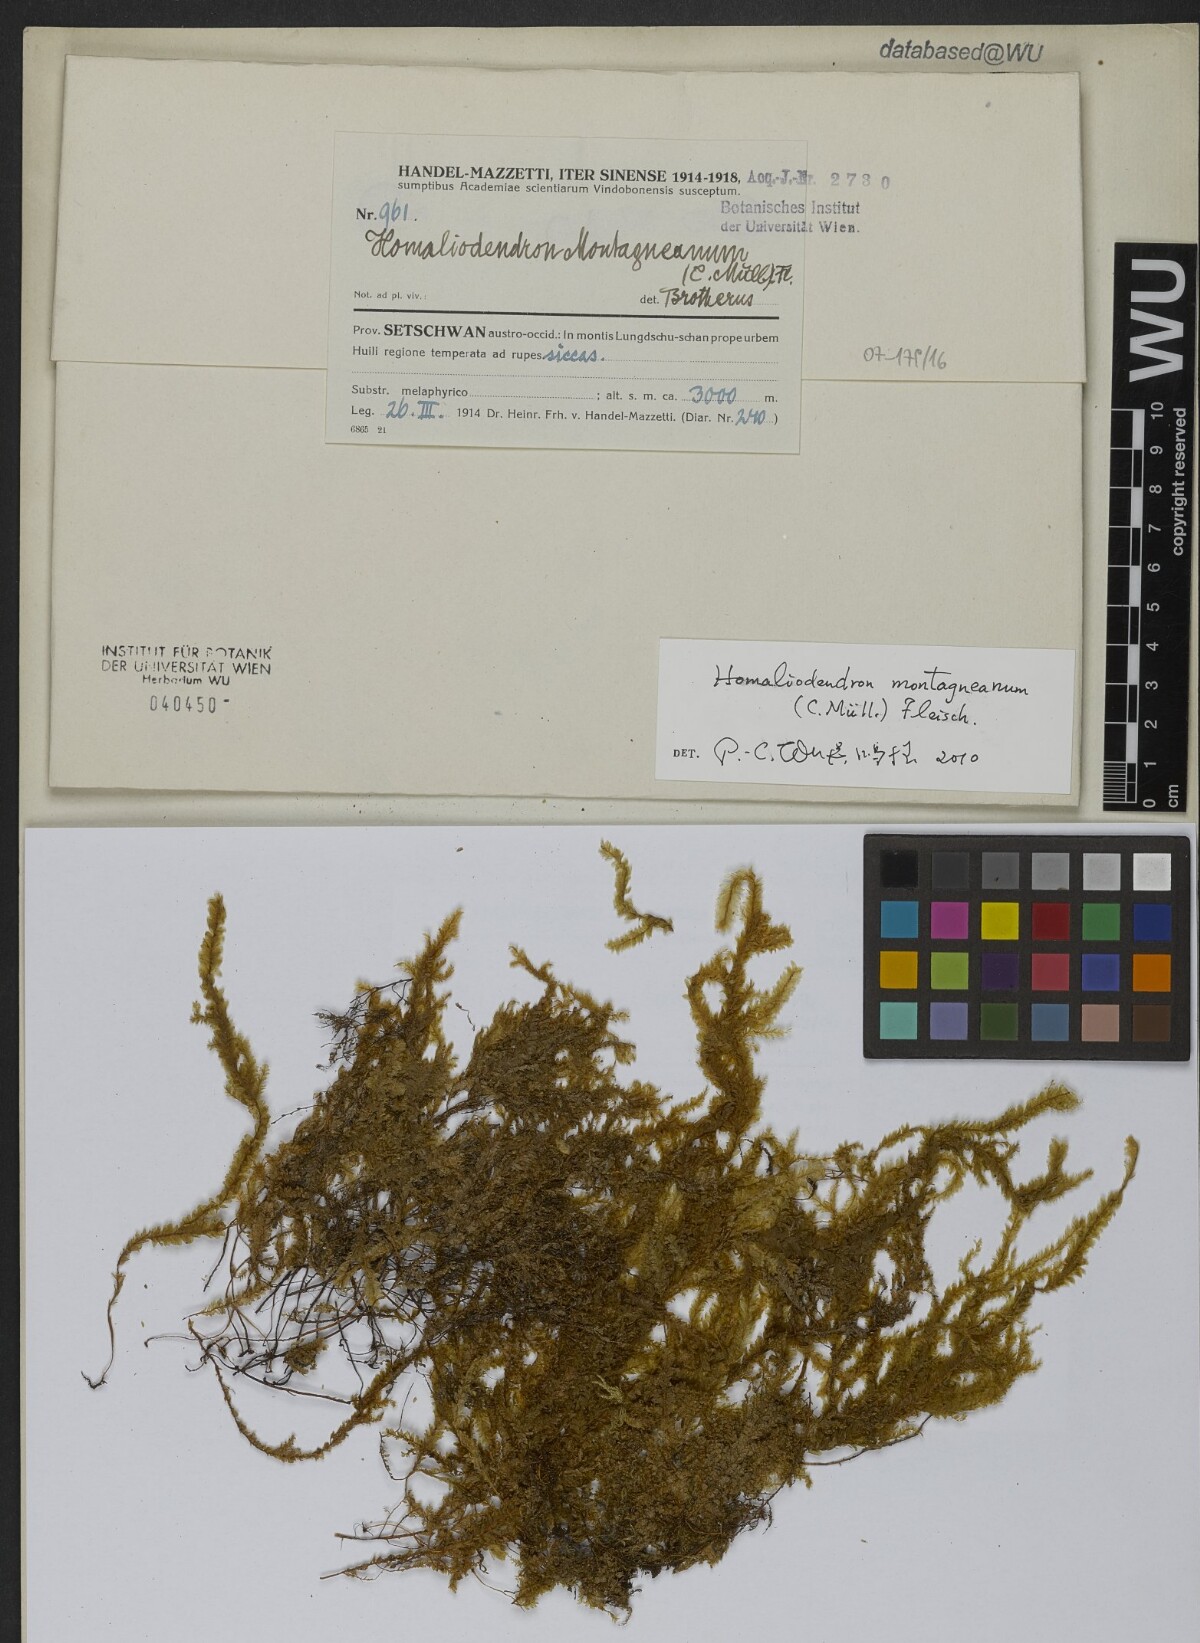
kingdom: Plantae
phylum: Bryophyta
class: Bryopsida
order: Hypnales
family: Neckeraceae
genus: Homaliodendron
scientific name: Homaliodendron montagneanum
